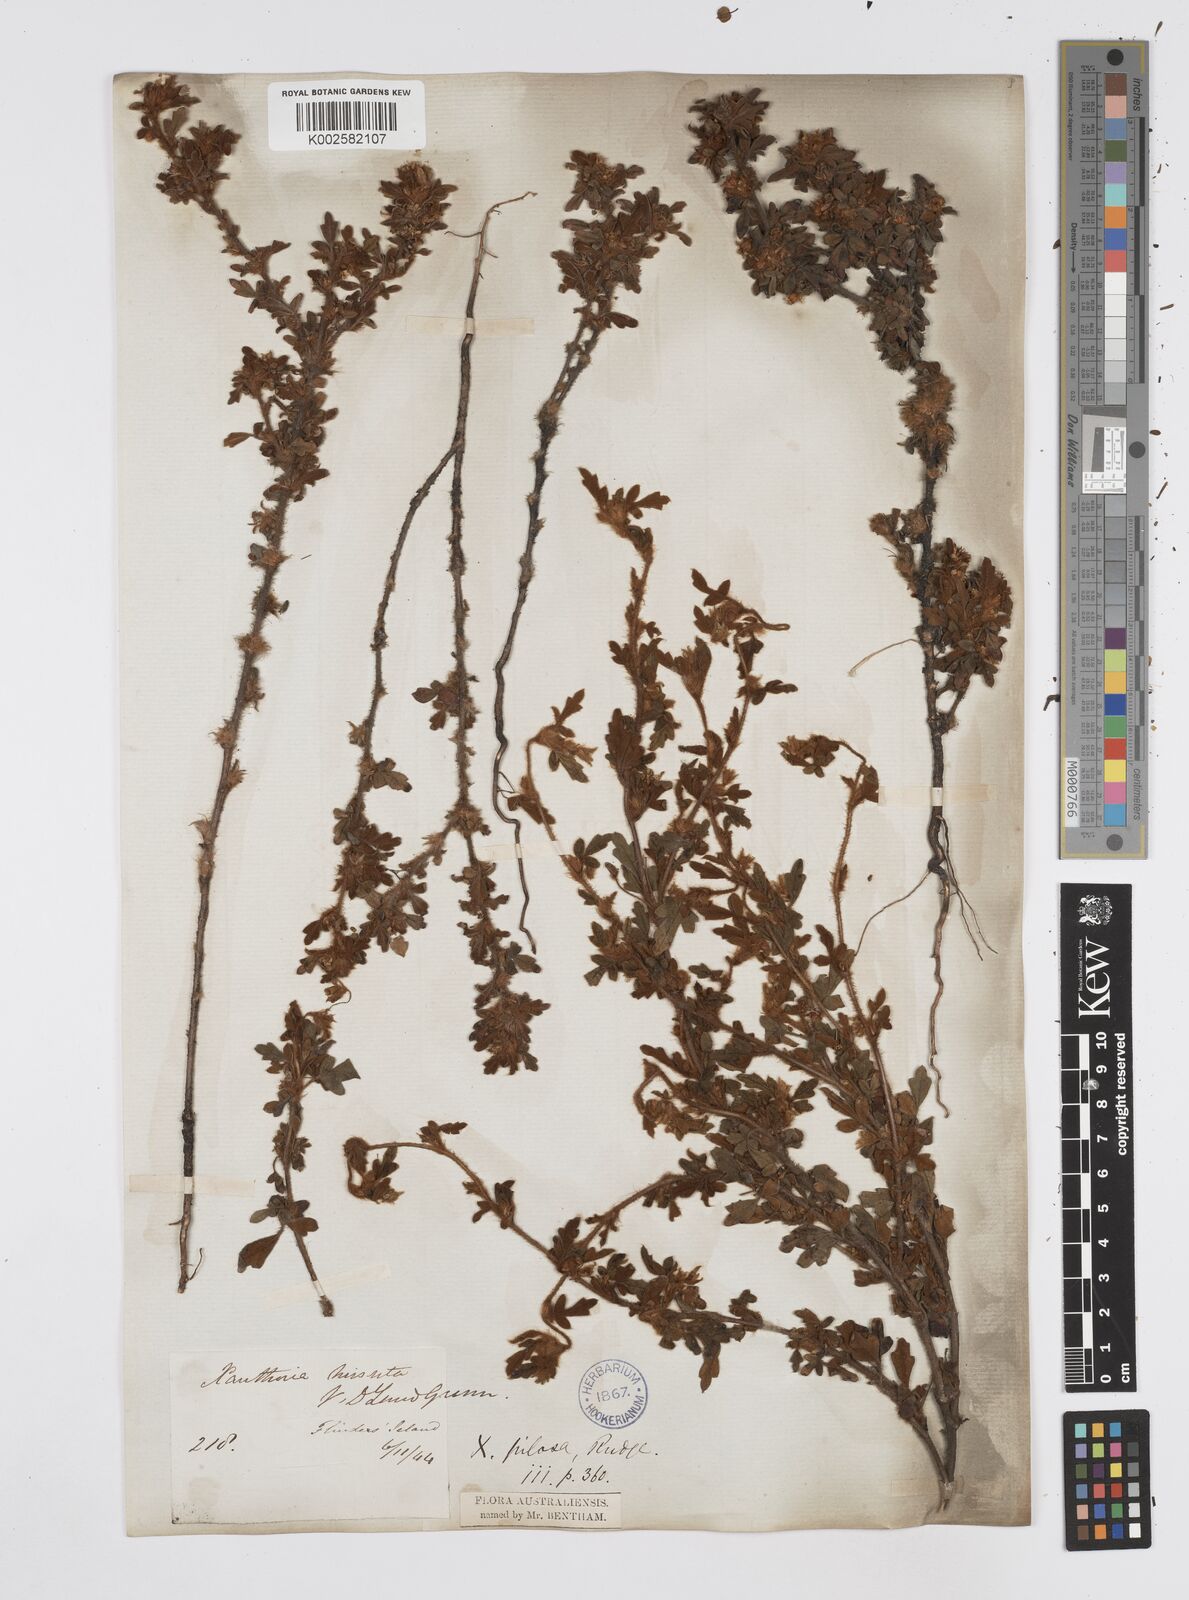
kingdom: Plantae
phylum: Tracheophyta
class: Magnoliopsida
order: Apiales
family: Apiaceae
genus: Xanthosia
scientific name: Xanthosia pilosa
